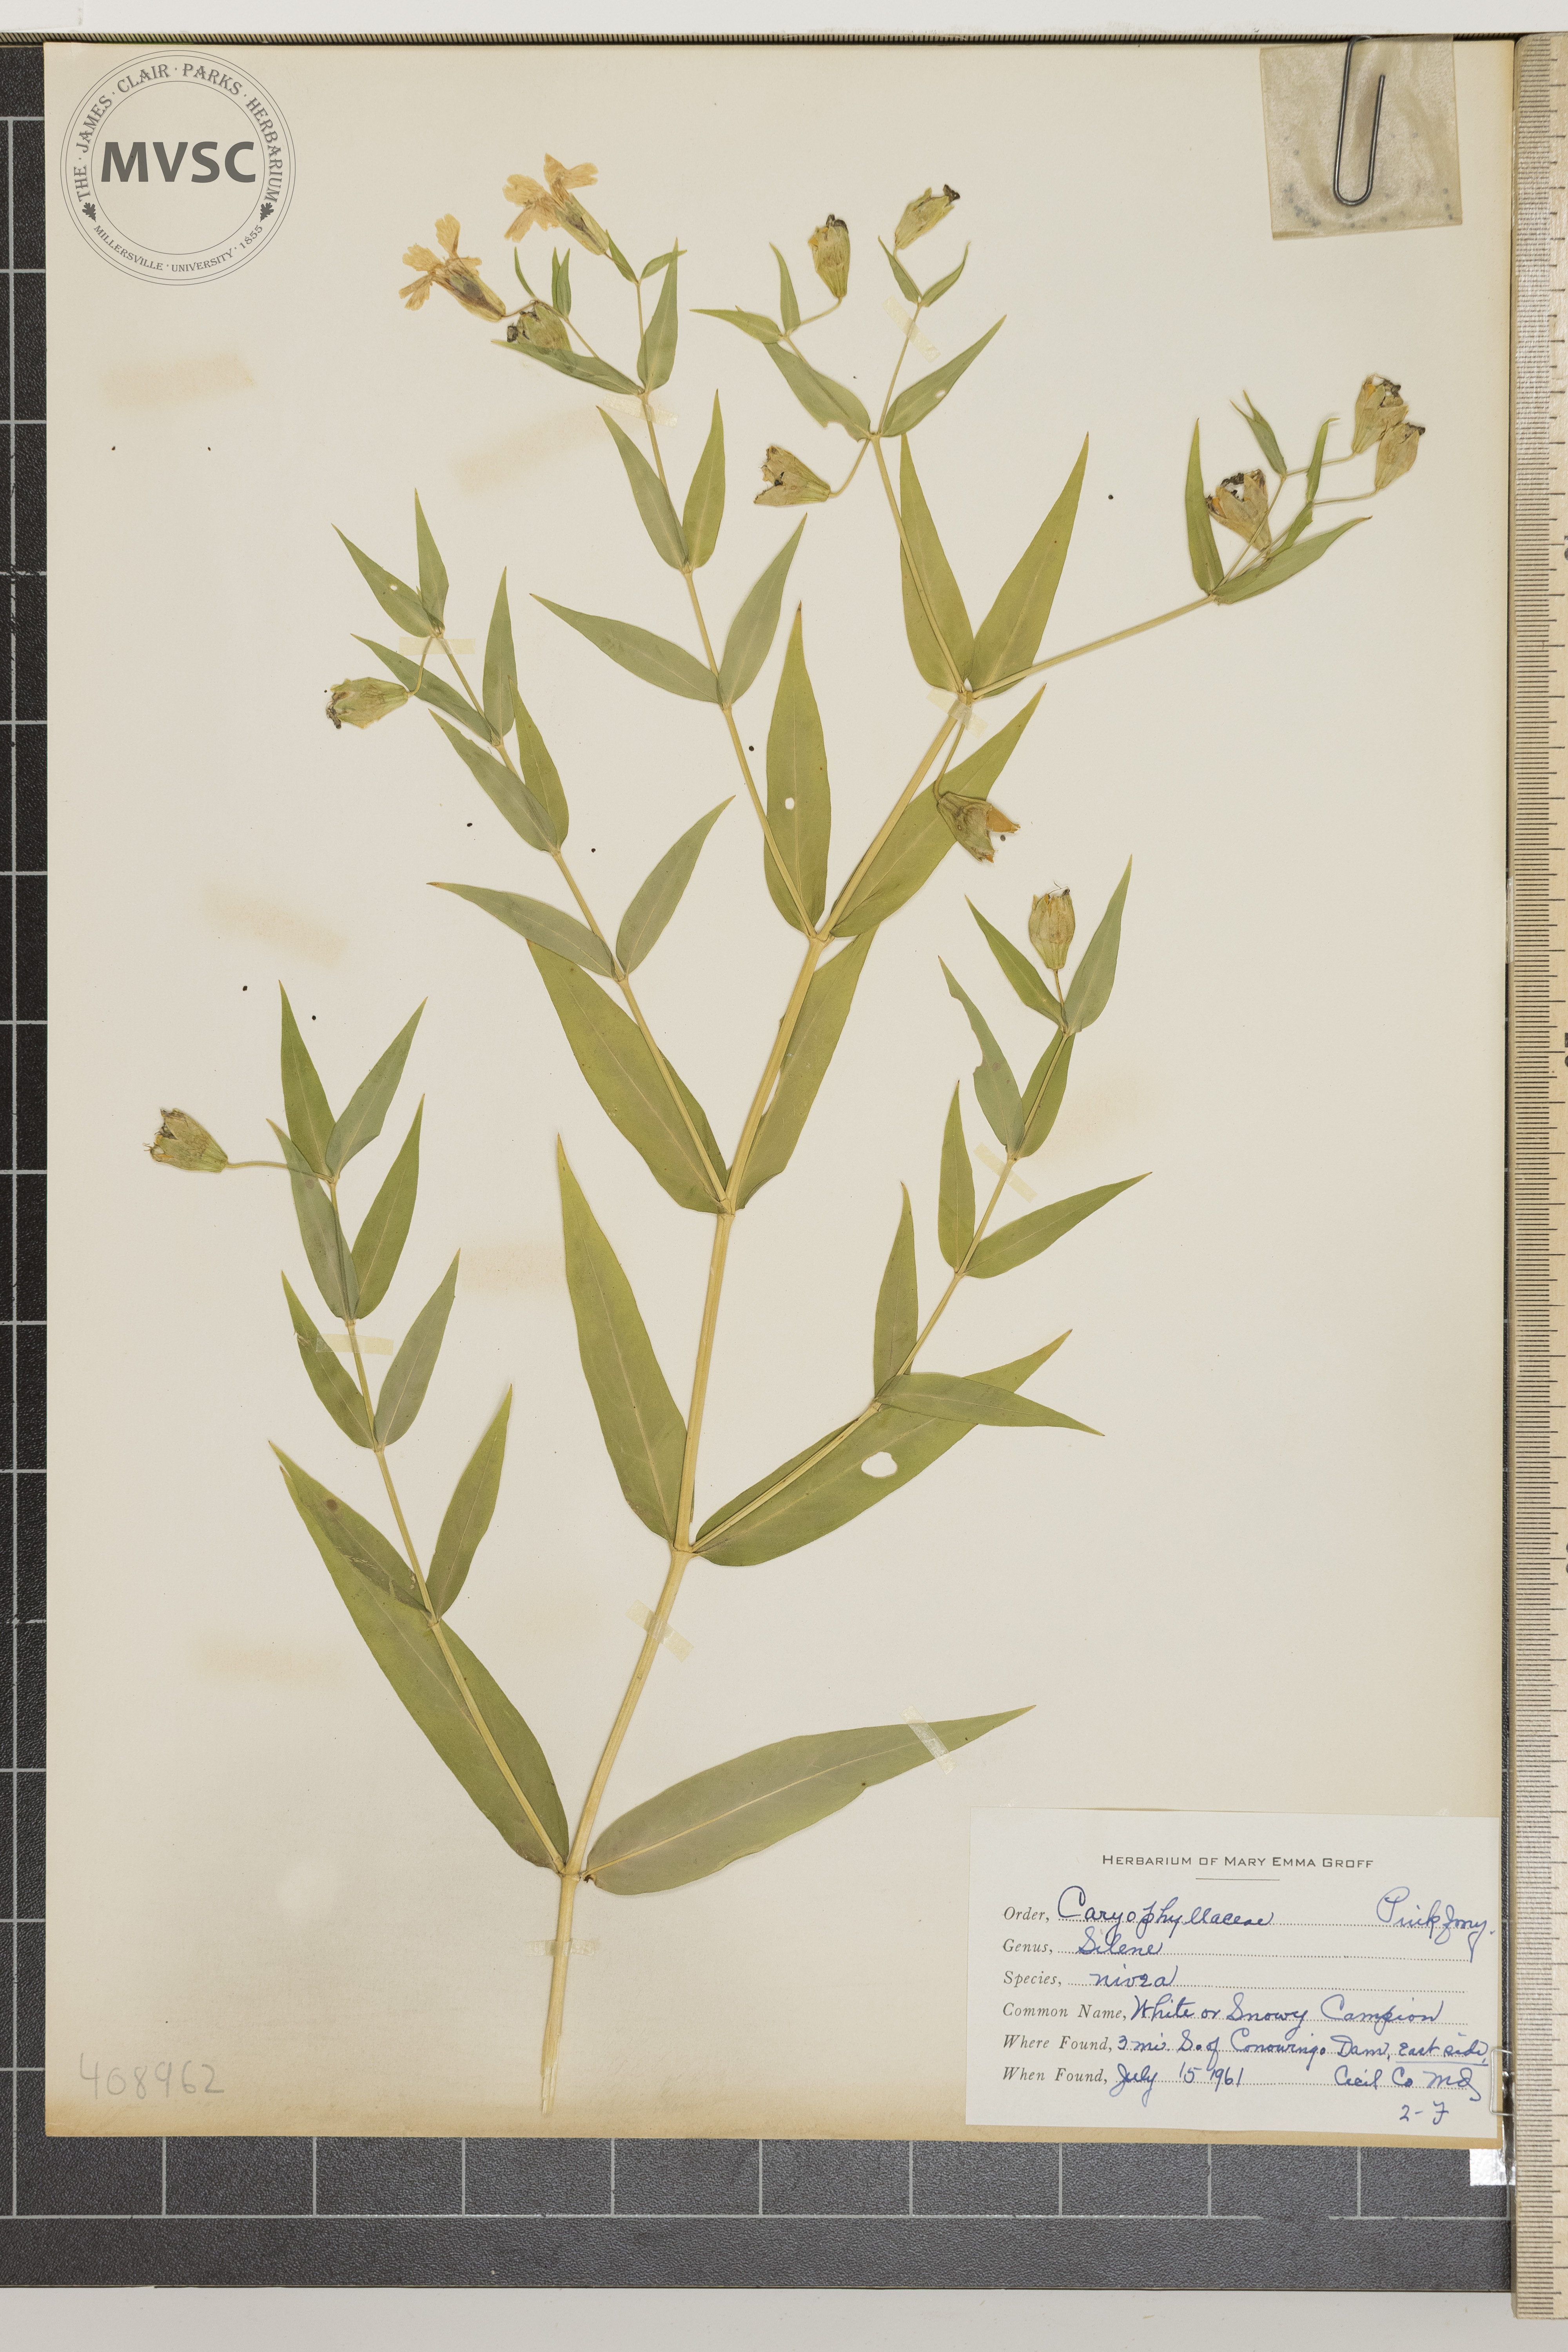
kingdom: Plantae
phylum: Tracheophyta
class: Magnoliopsida
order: Caryophyllales
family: Caryophyllaceae
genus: Silene
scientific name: Silene nivea
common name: Snowy campion
